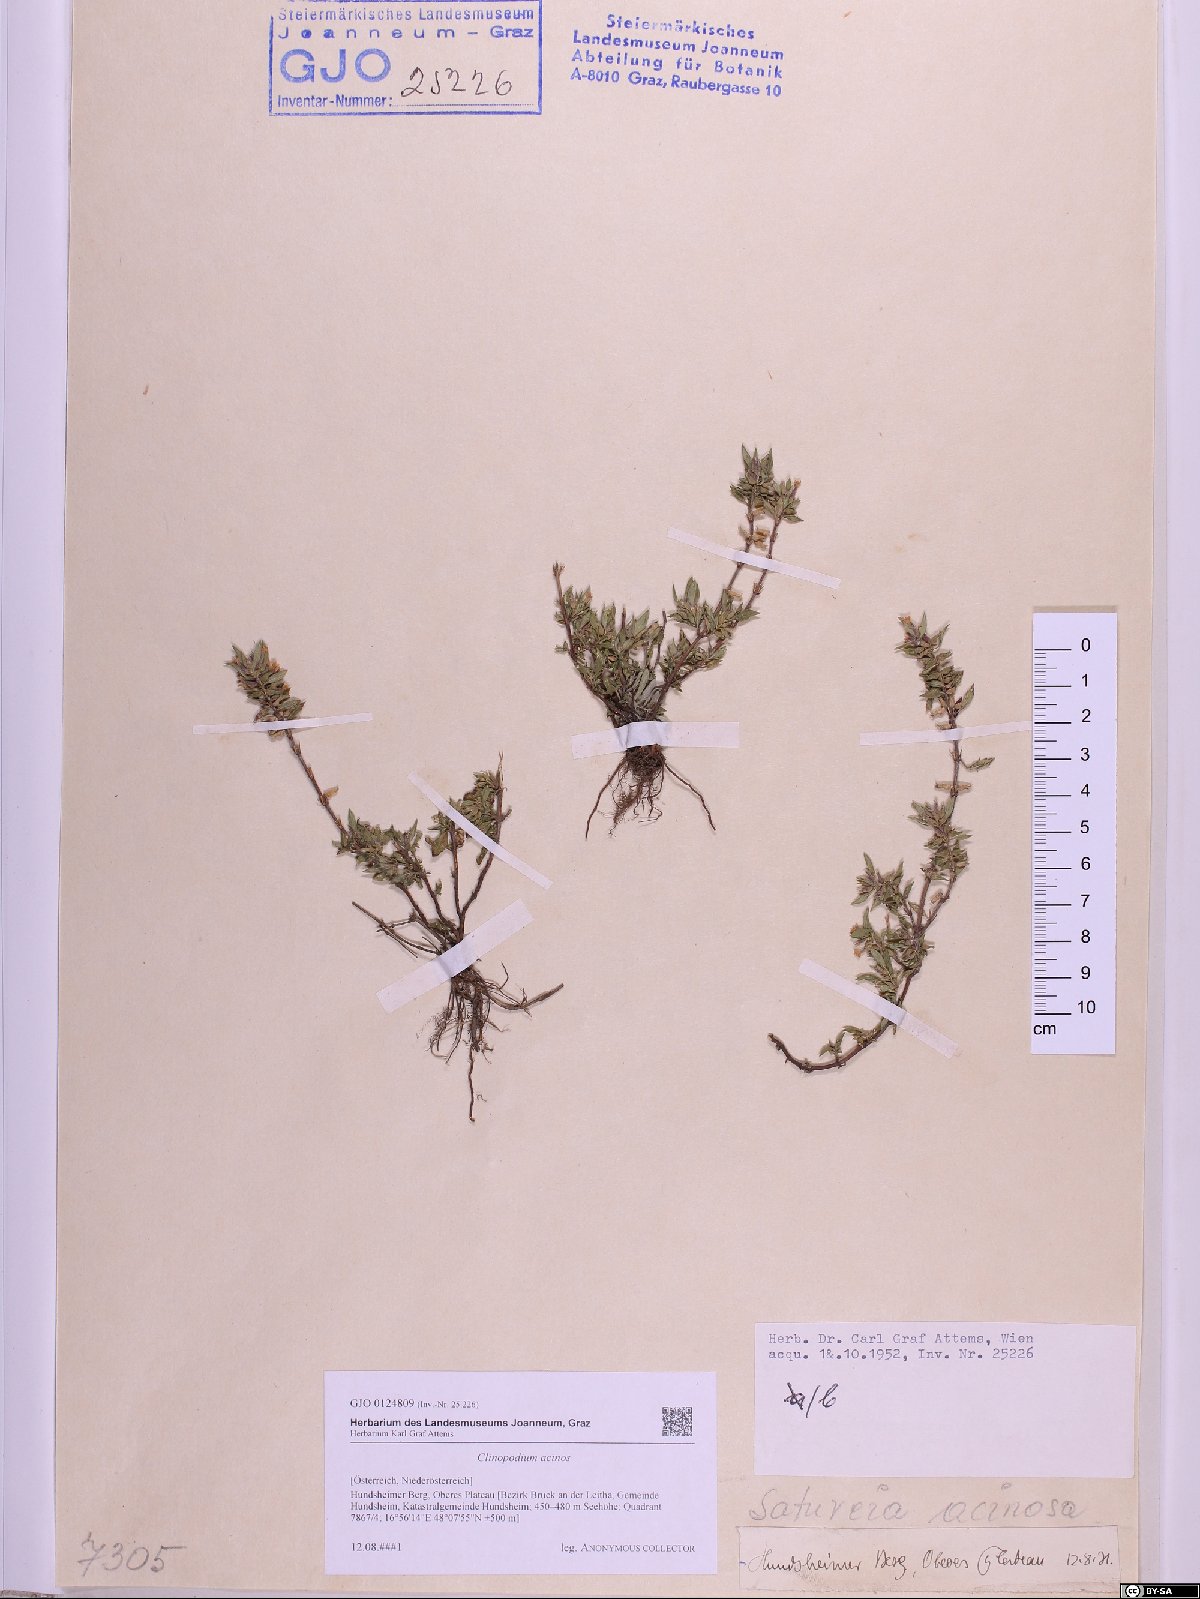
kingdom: Plantae
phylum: Tracheophyta
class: Magnoliopsida
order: Lamiales
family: Lamiaceae
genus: Clinopodium
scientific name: Clinopodium acinos
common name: Basil thyme
